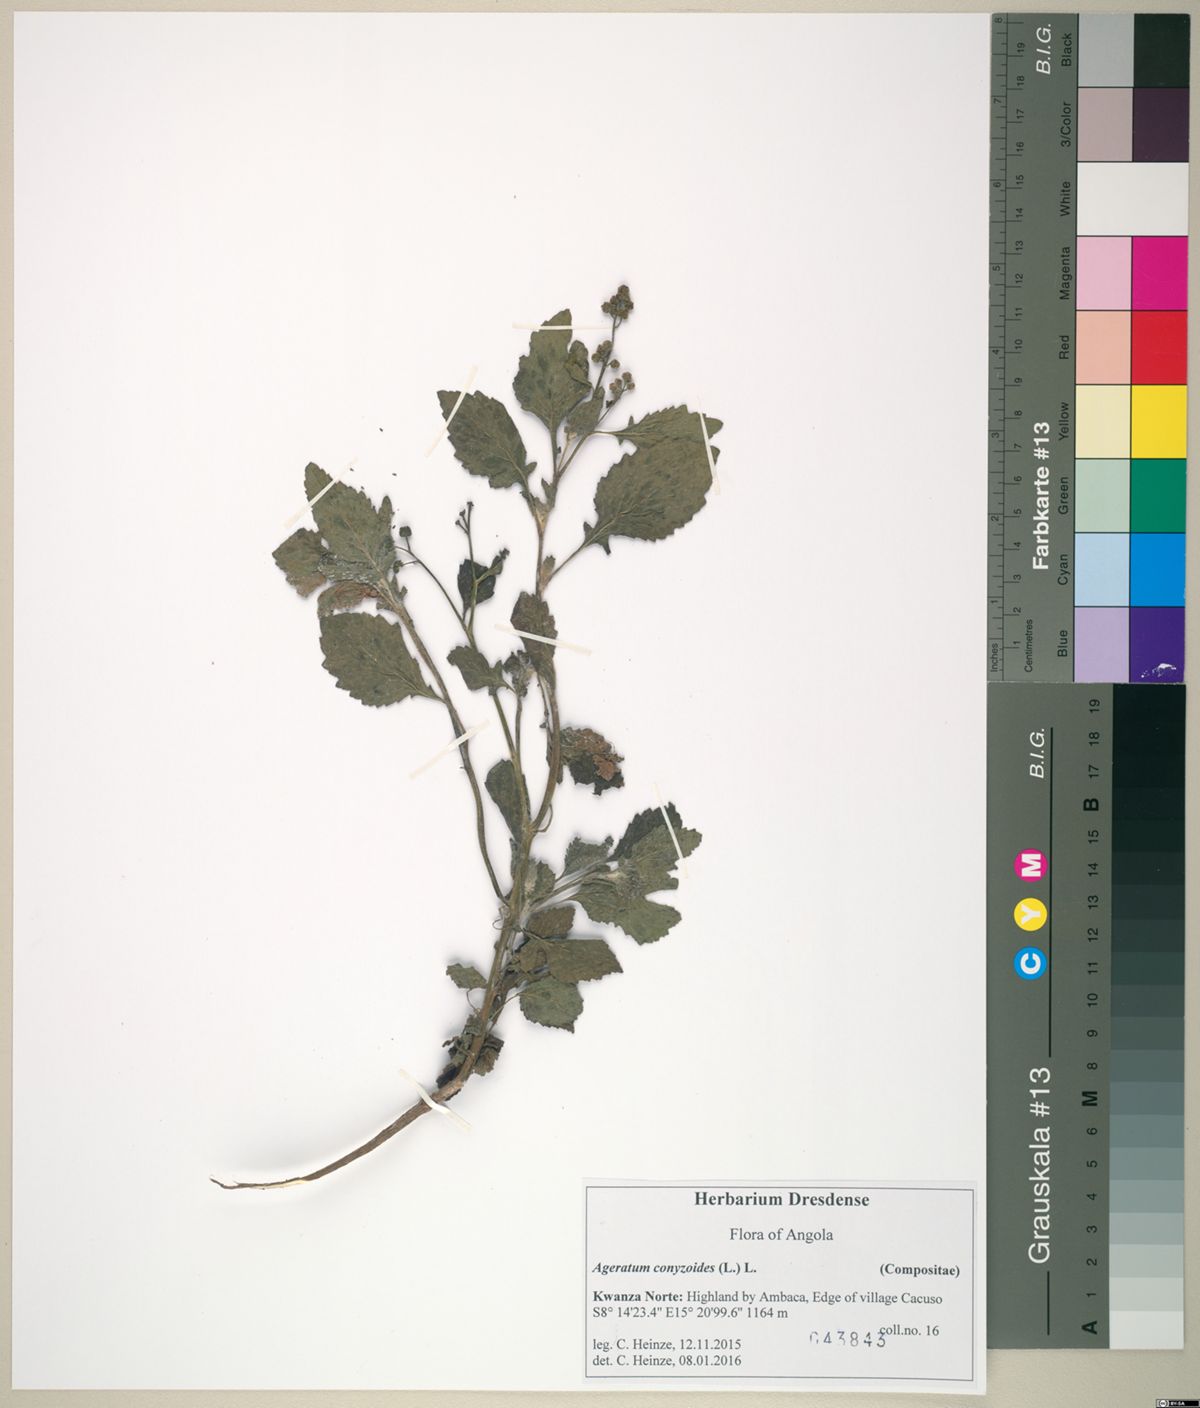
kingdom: Plantae
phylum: Tracheophyta
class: Magnoliopsida
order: Asterales
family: Asteraceae
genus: Ageratum
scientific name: Ageratum conyzoides
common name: Tropical whiteweed
